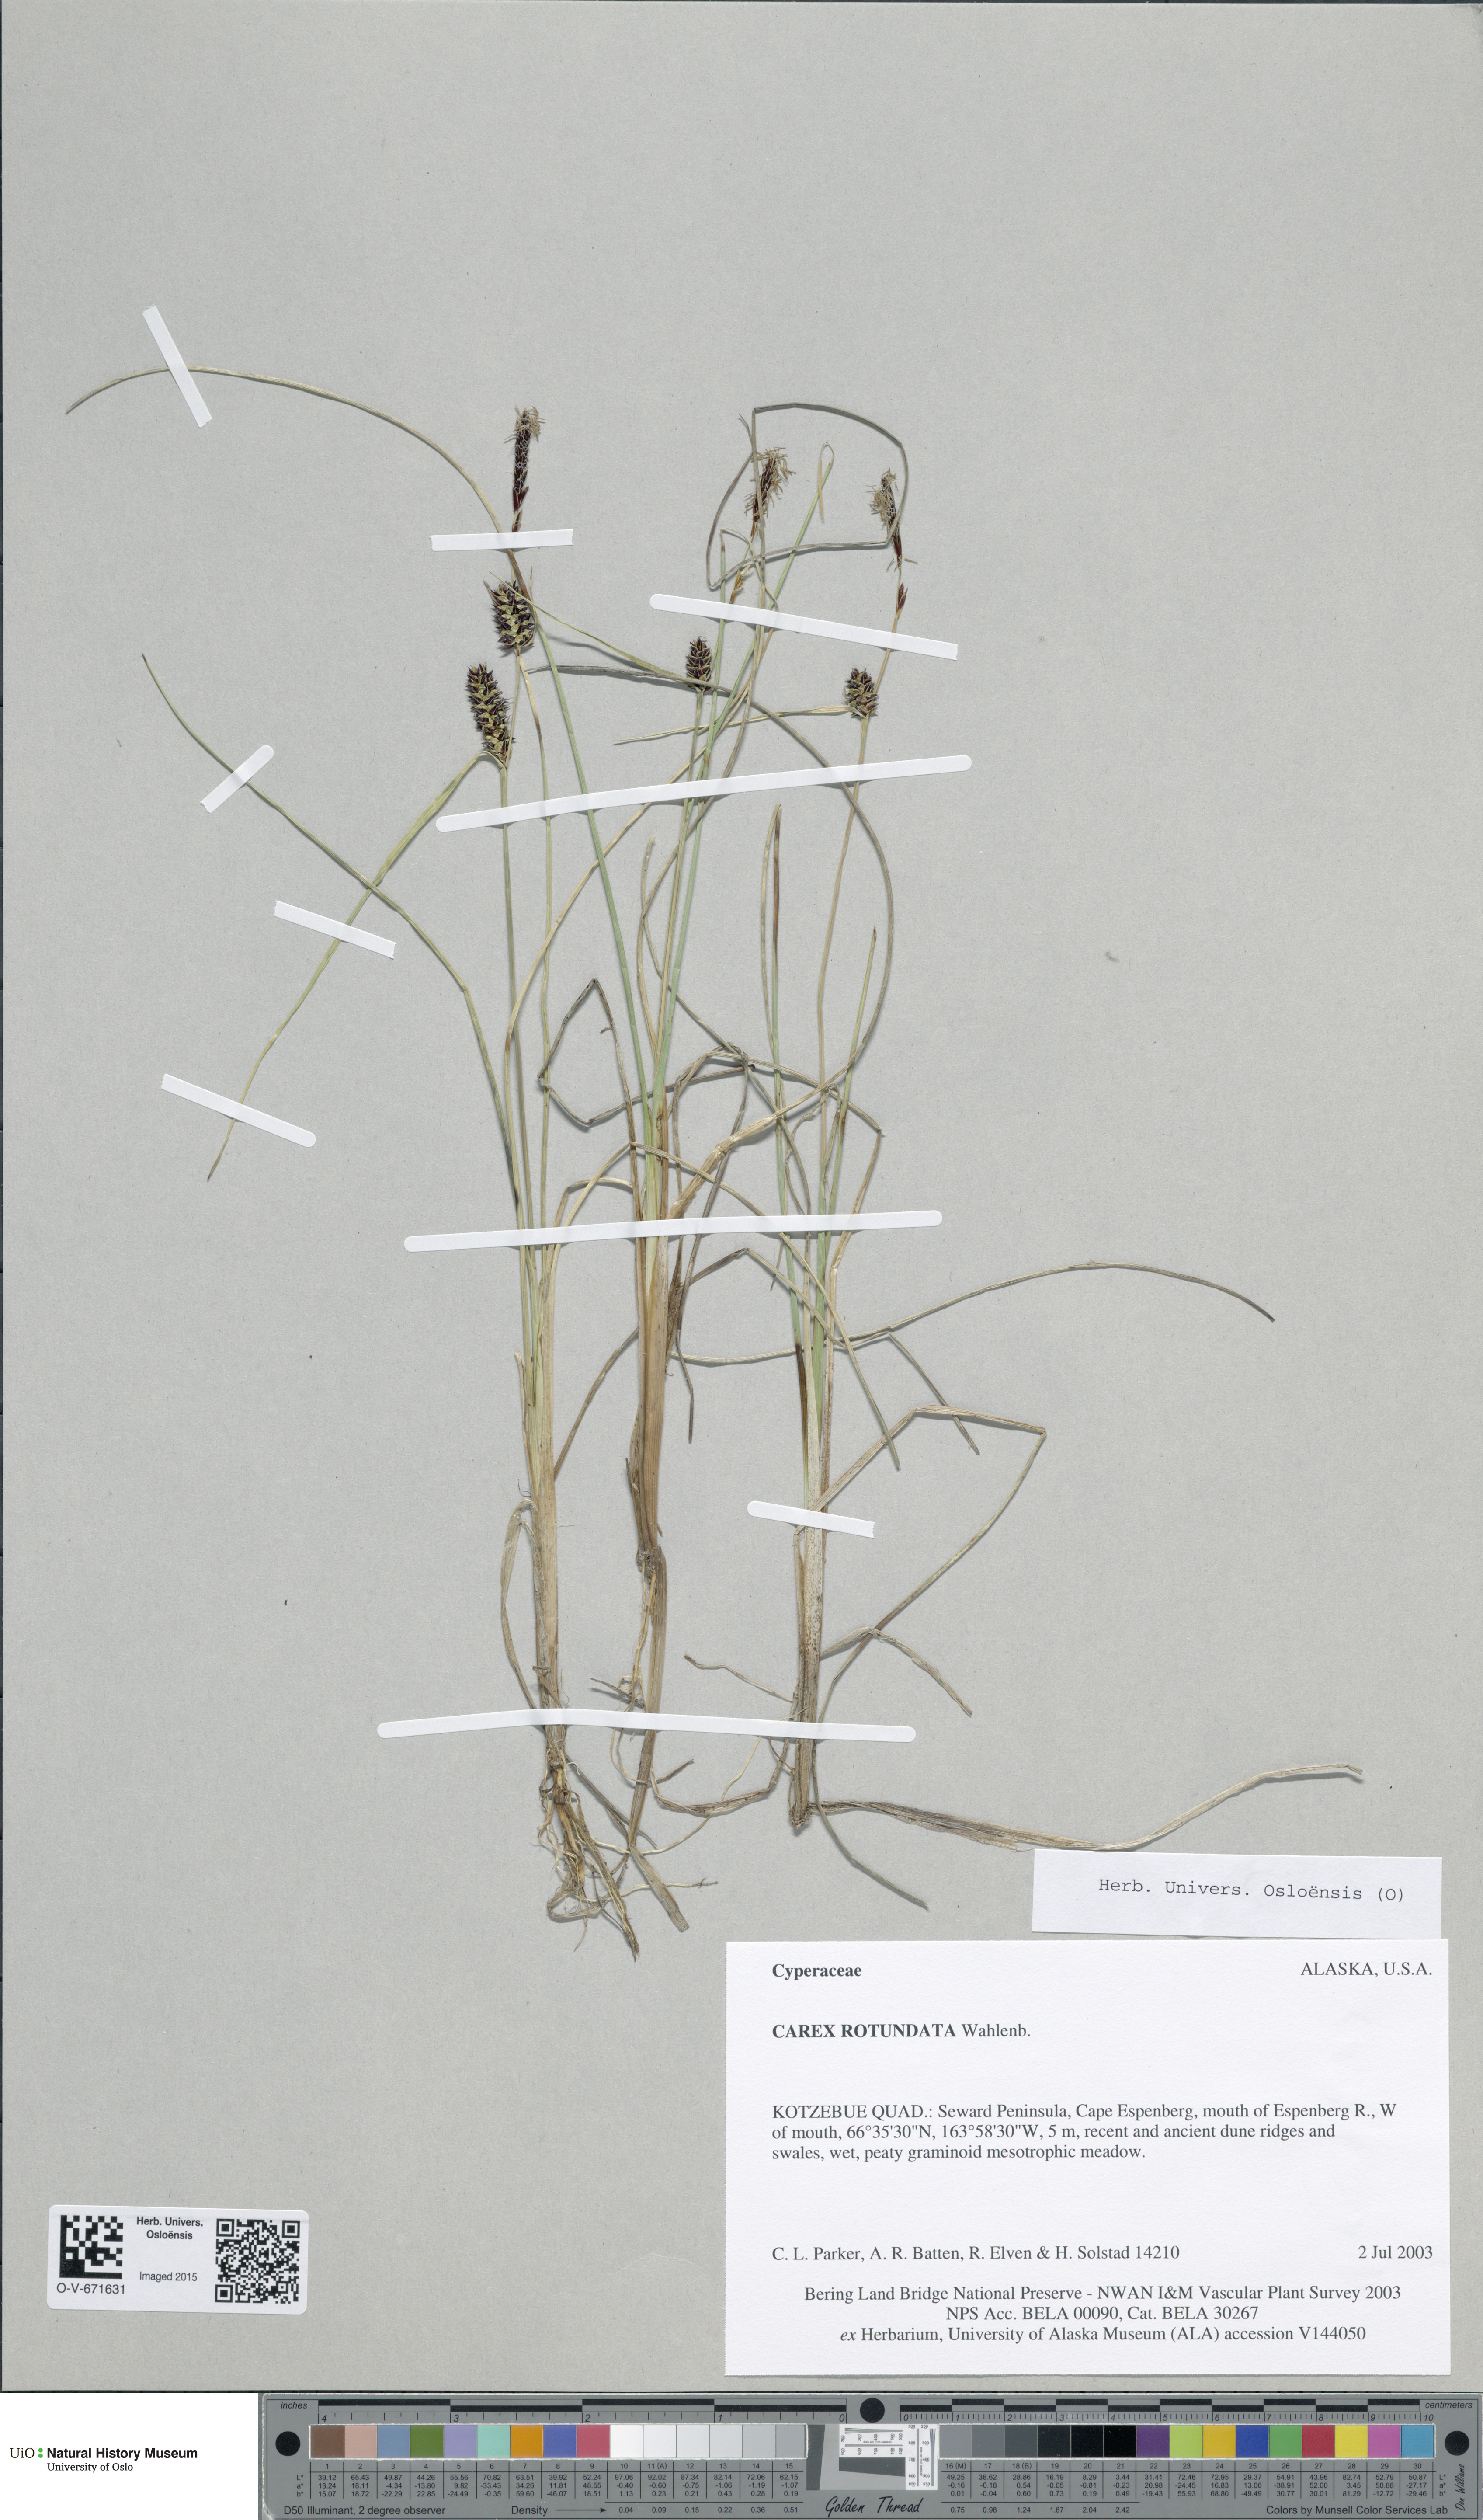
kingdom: Plantae
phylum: Tracheophyta
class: Liliopsida
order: Poales
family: Cyperaceae
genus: Carex
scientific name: Carex rotundata
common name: Round-fruited sedge
